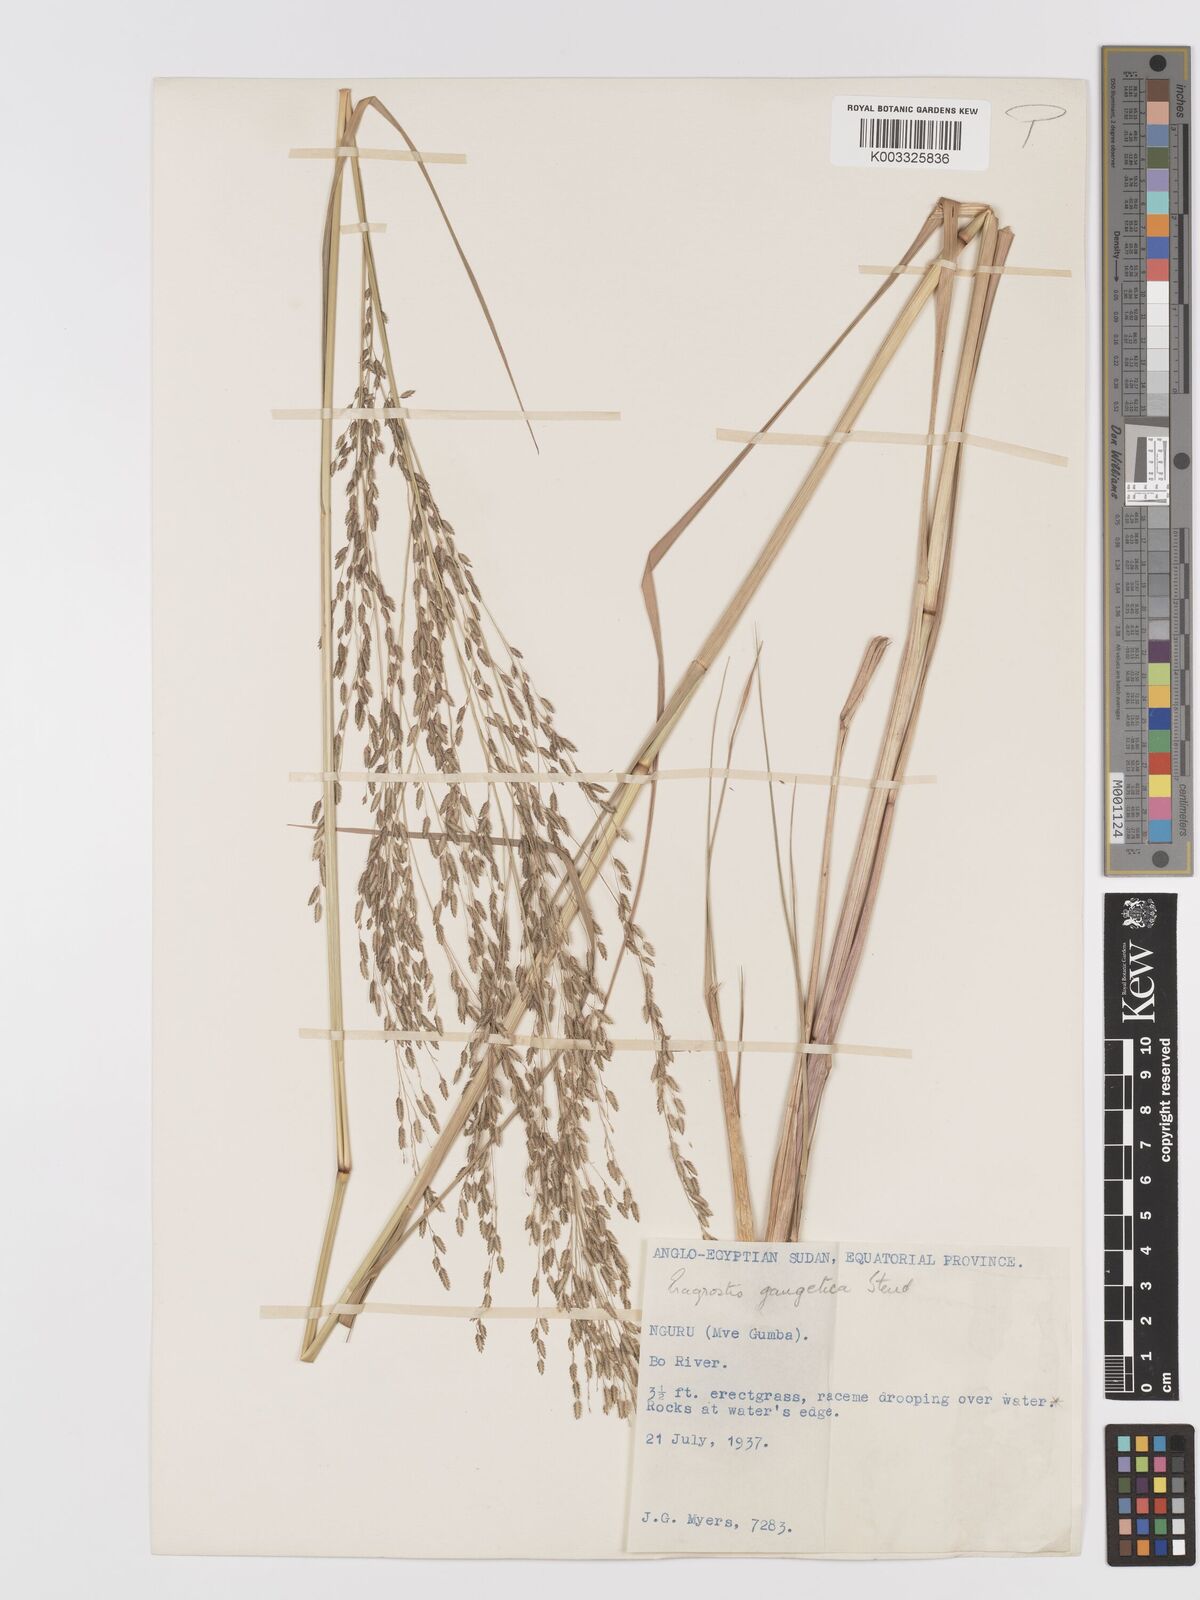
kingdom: Plantae
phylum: Tracheophyta
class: Liliopsida
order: Poales
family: Poaceae
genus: Eragrostis
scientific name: Eragrostis atrovirens
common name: Thalia lovegrass
